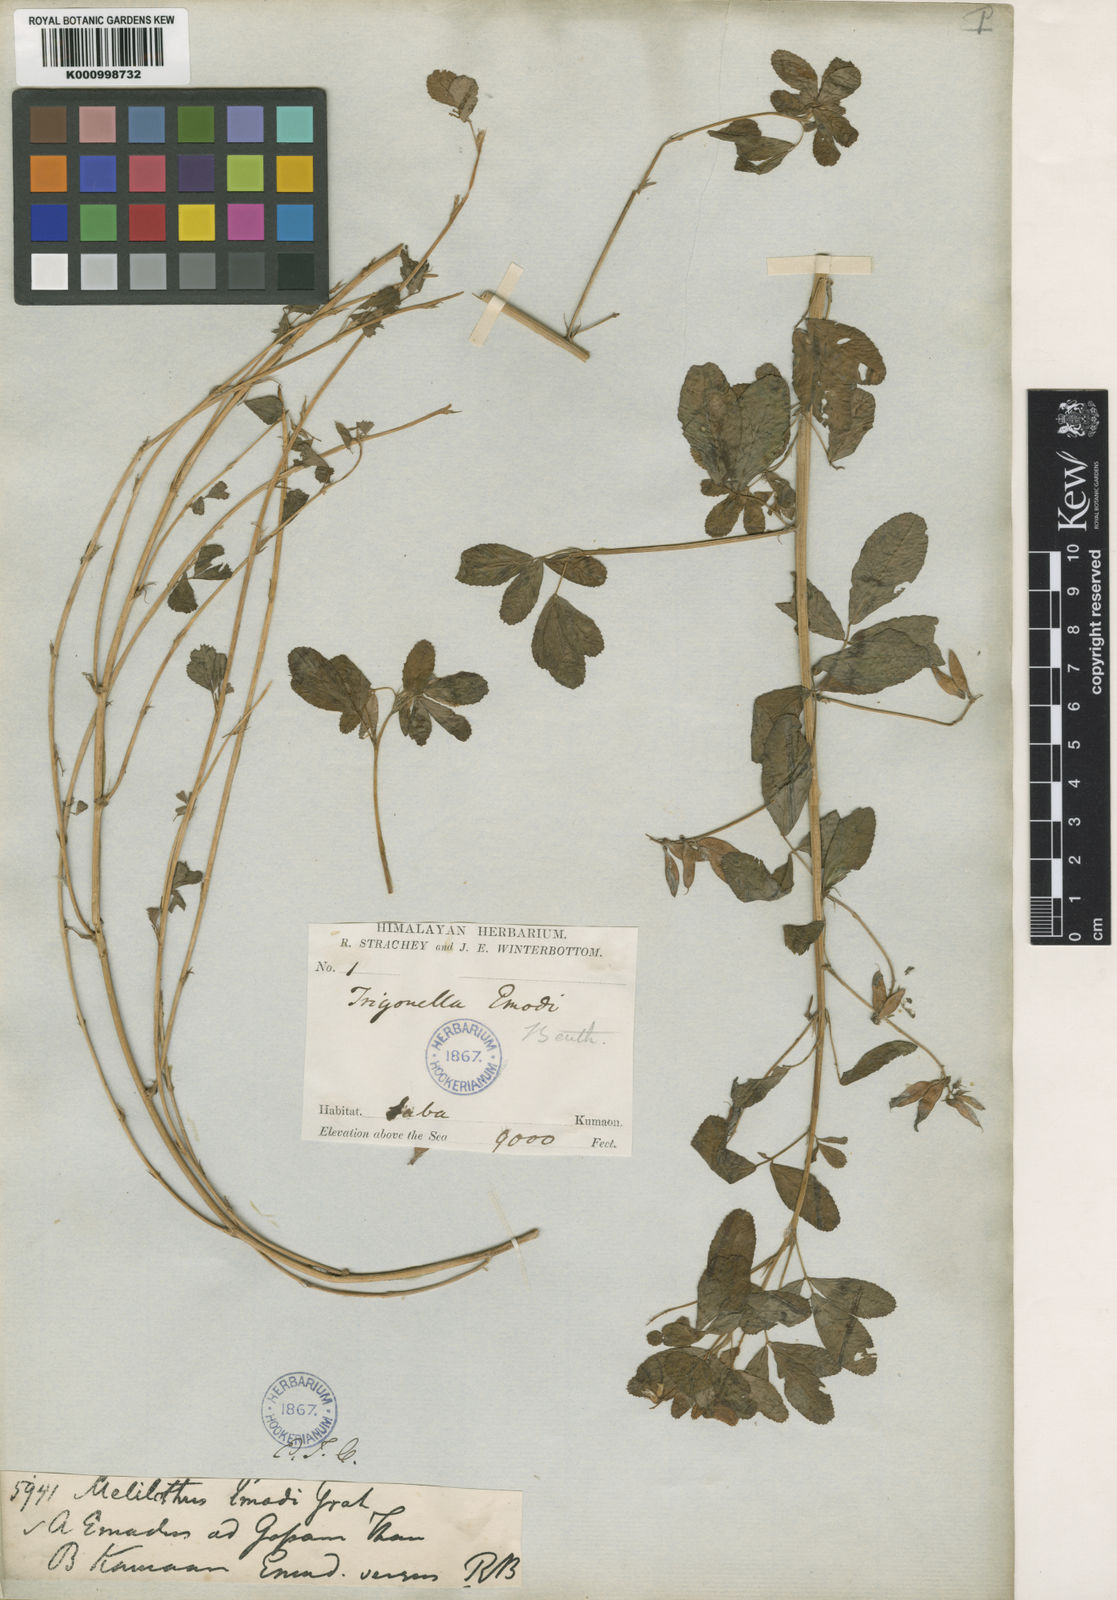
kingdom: Plantae
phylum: Tracheophyta
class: Magnoliopsida
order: Fabales
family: Fabaceae
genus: Trigonella
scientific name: Trigonella emodi
